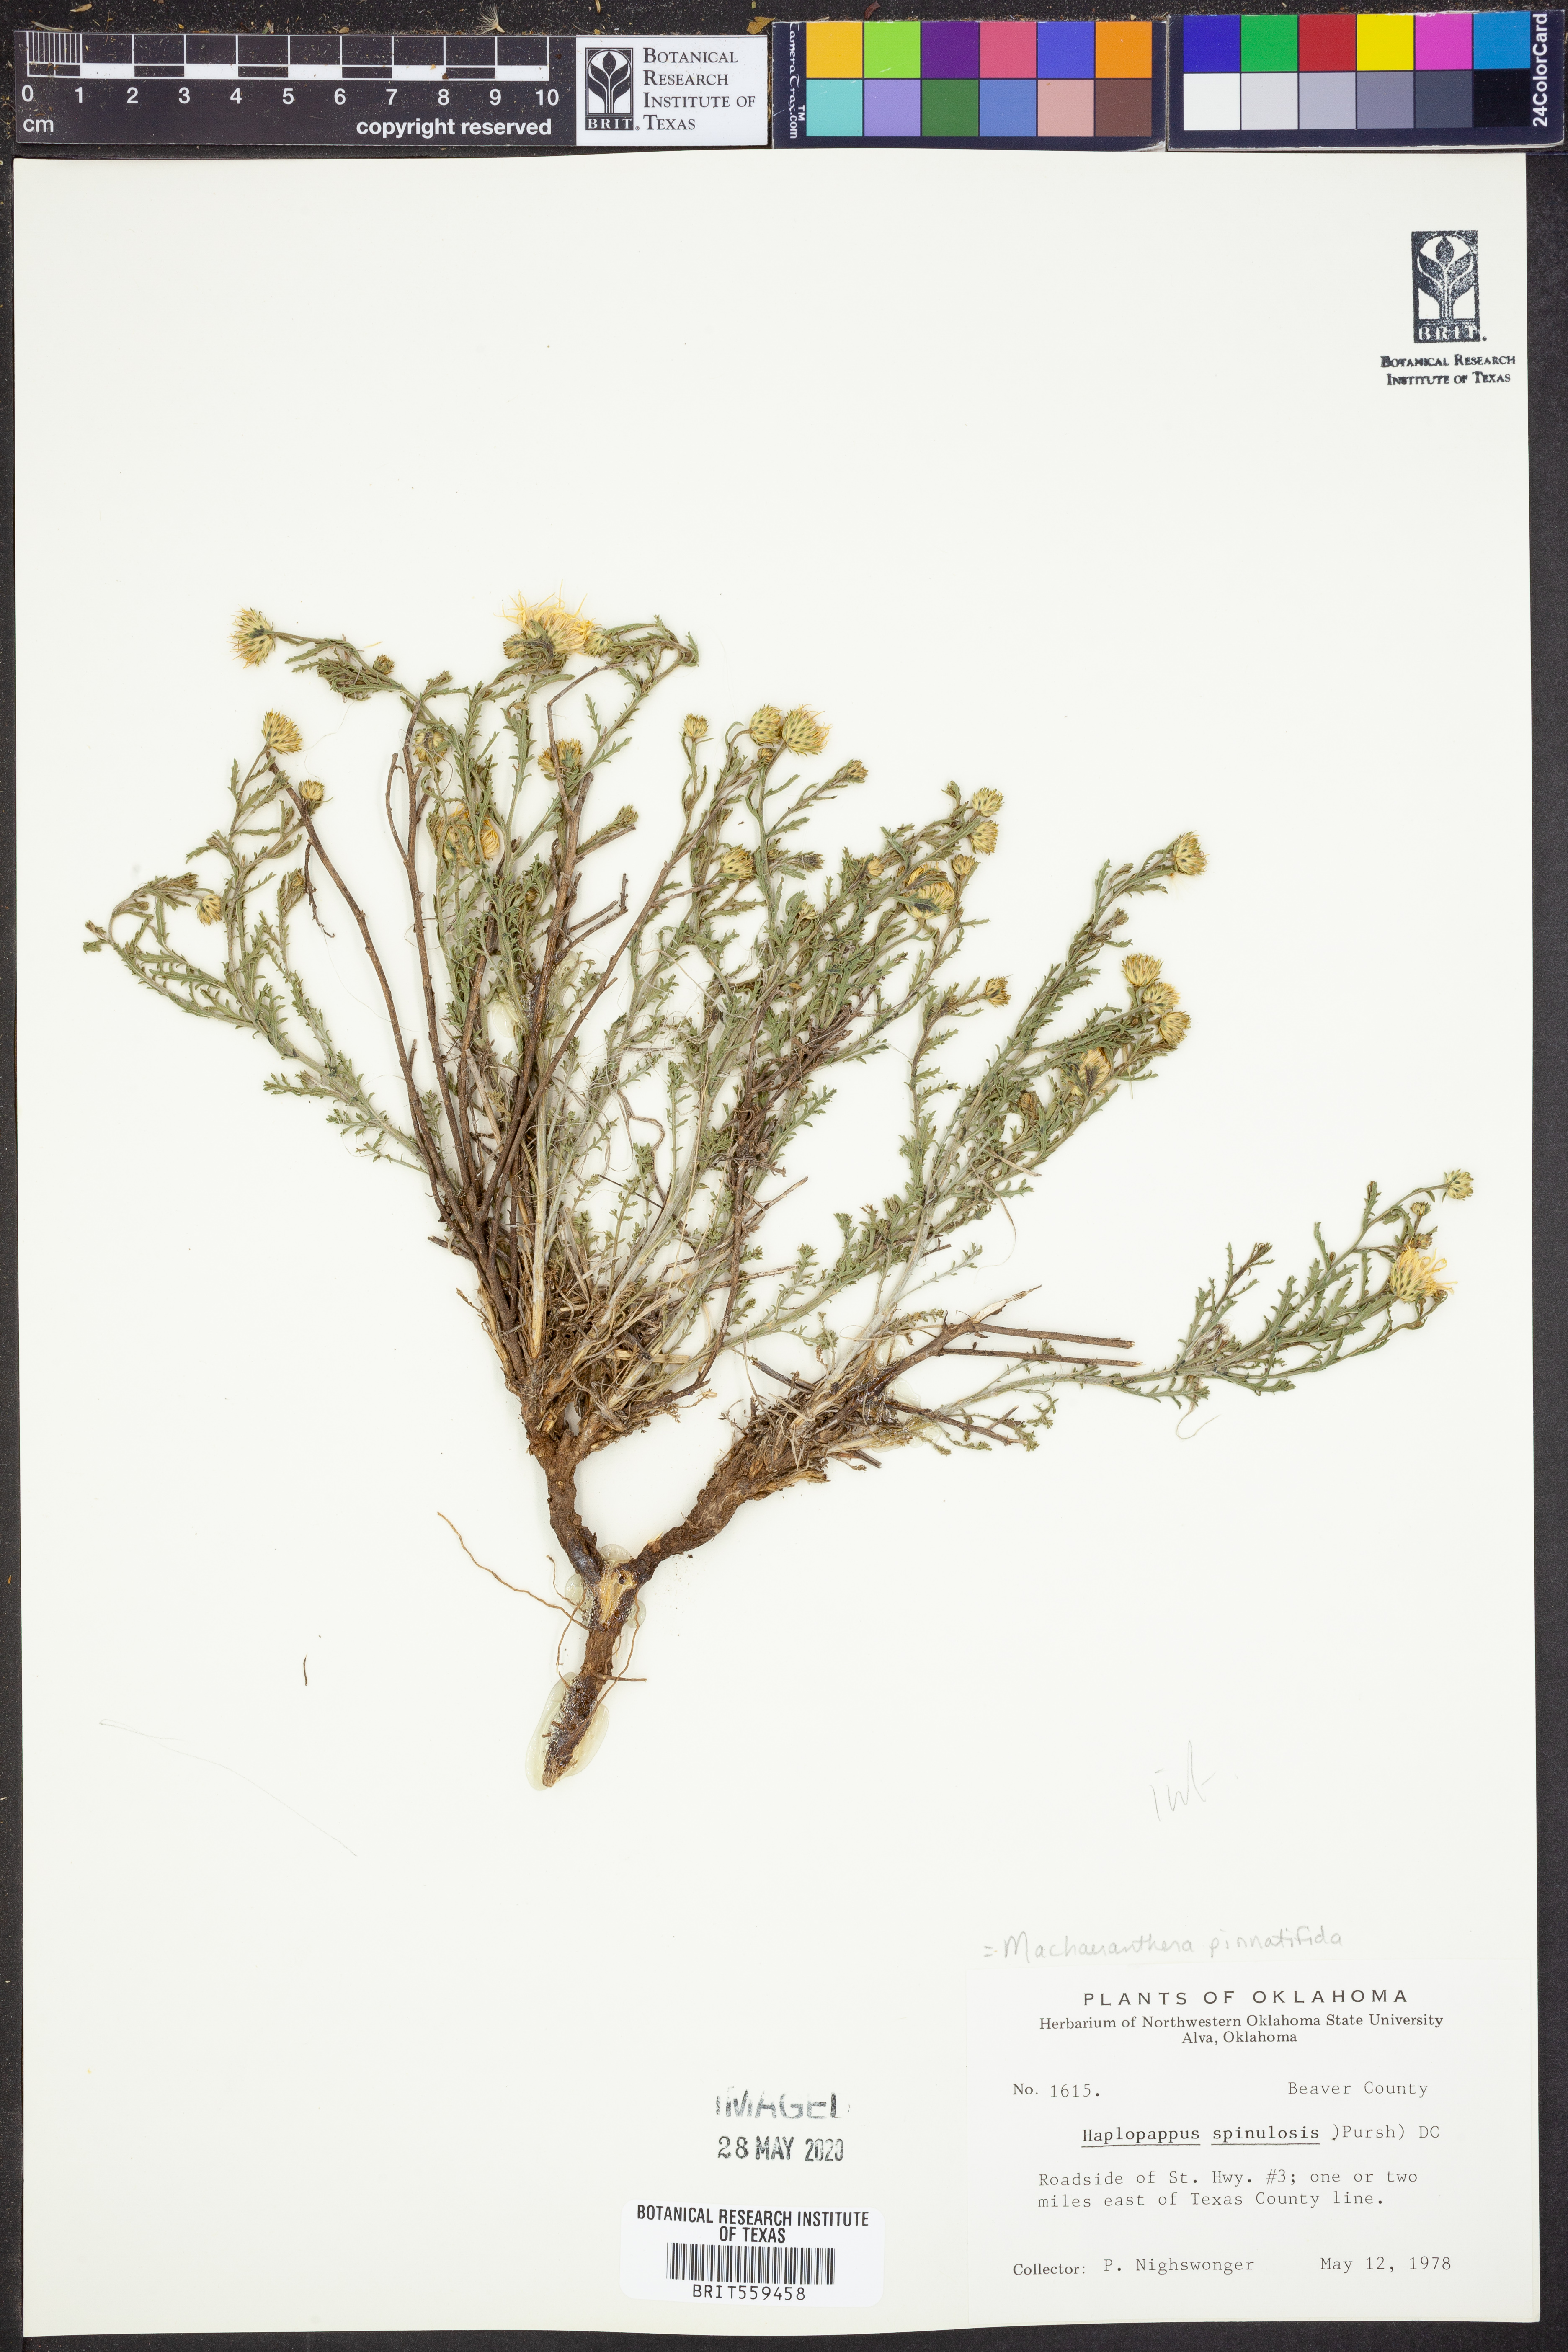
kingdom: Plantae
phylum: Tracheophyta
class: Magnoliopsida
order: Asterales
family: Asteraceae
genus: Xanthisma
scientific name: Xanthisma spinulosum
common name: Spiny goldenweed
